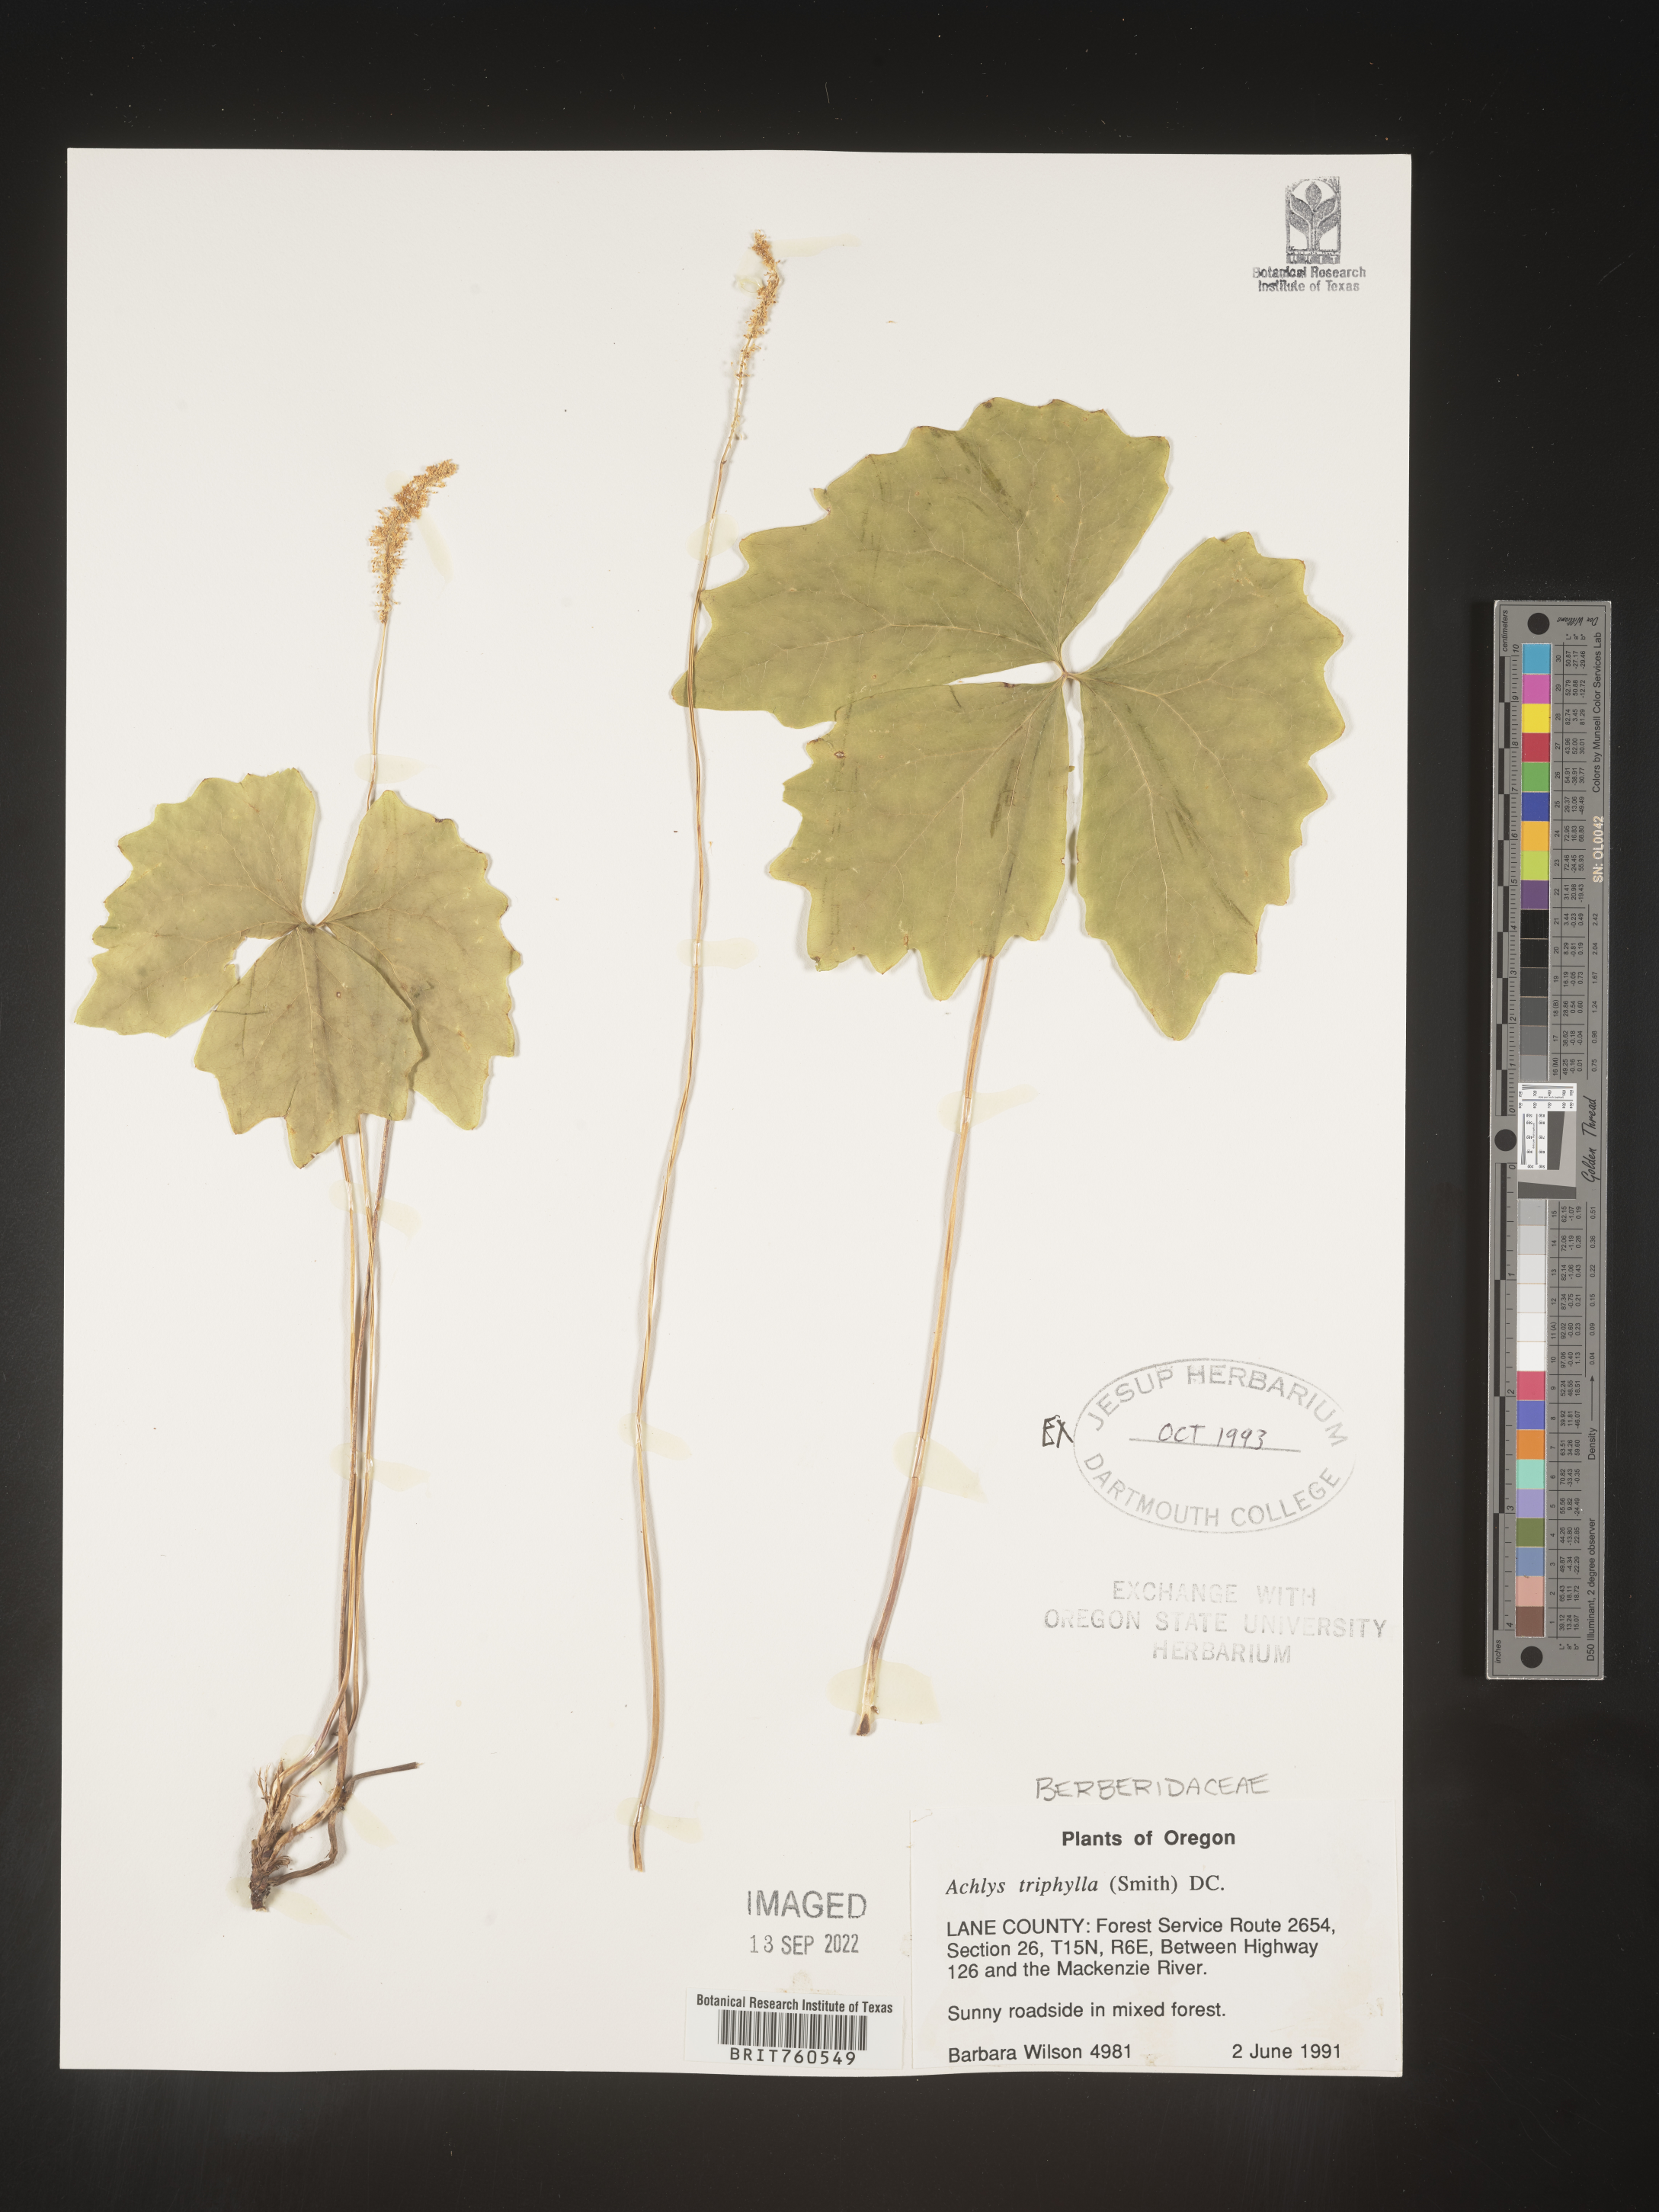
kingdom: Plantae
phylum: Tracheophyta
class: Magnoliopsida
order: Ranunculales
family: Berberidaceae
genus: Achlys
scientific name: Achlys
